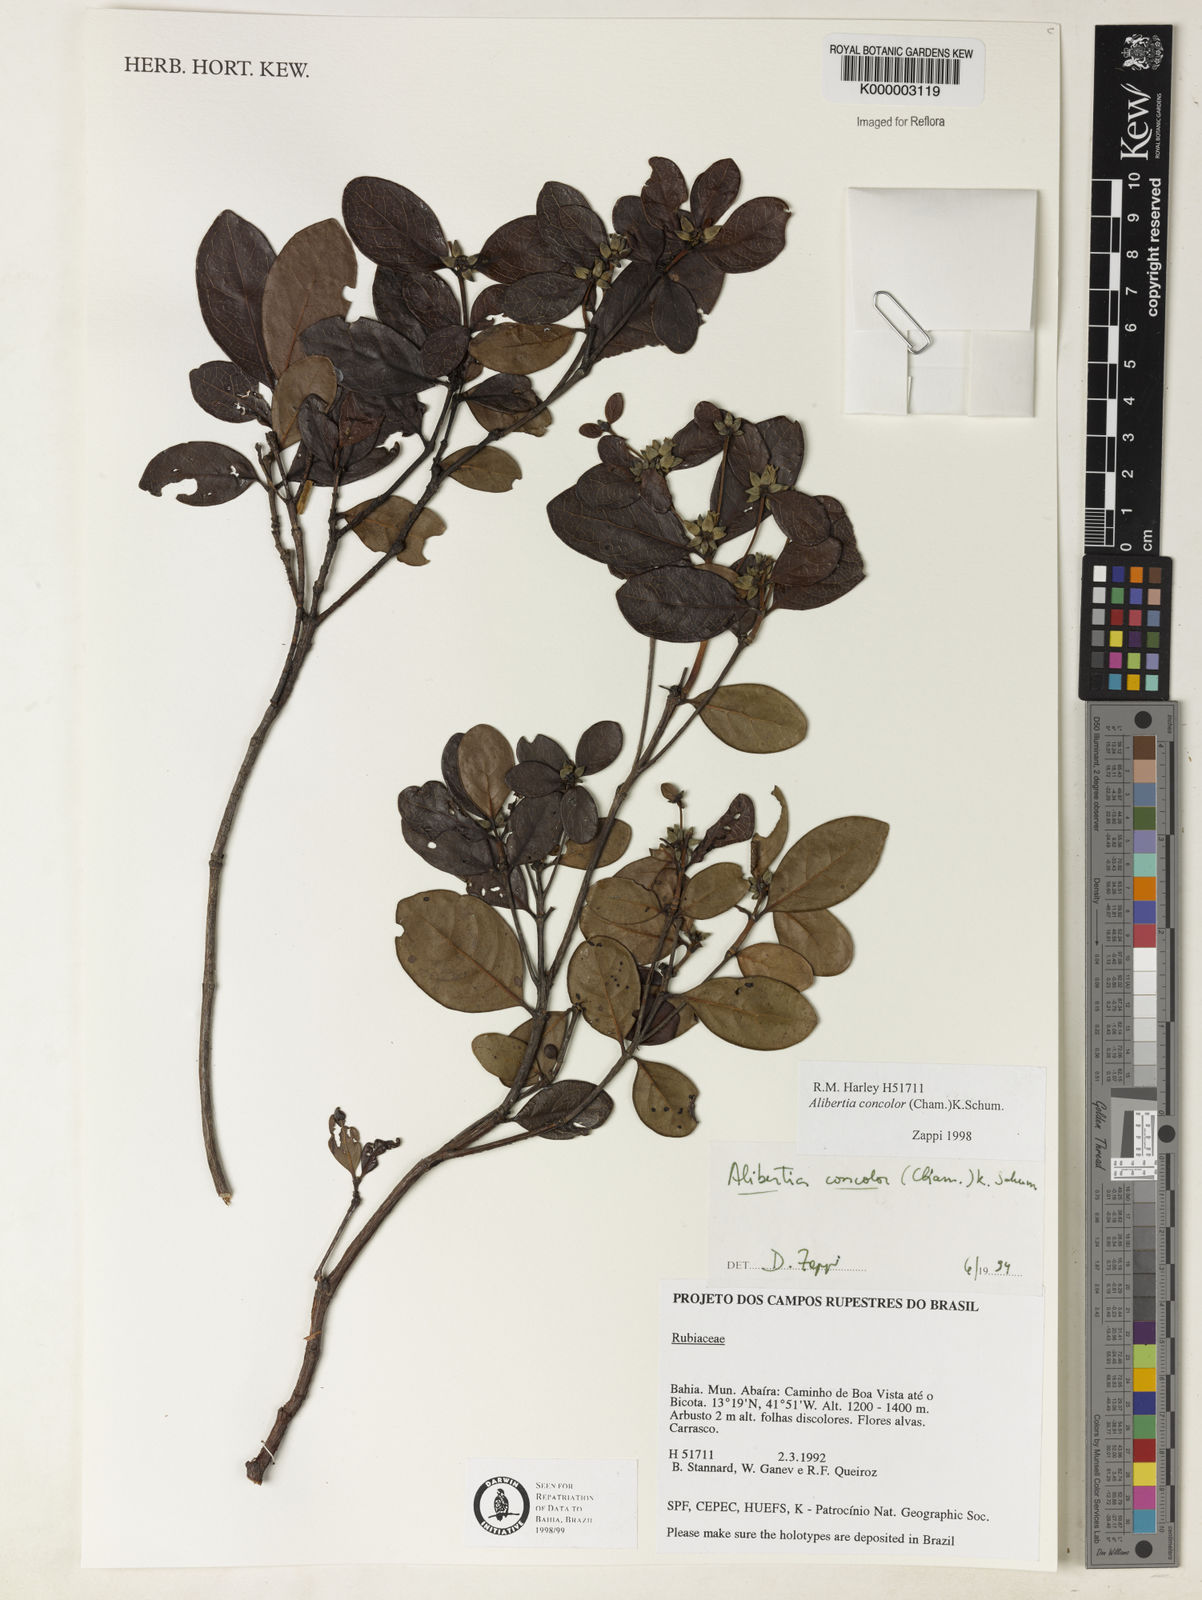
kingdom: Plantae
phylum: Tracheophyta
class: Magnoliopsida
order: Gentianales
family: Rubiaceae
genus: Cordiera
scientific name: Cordiera concolor
